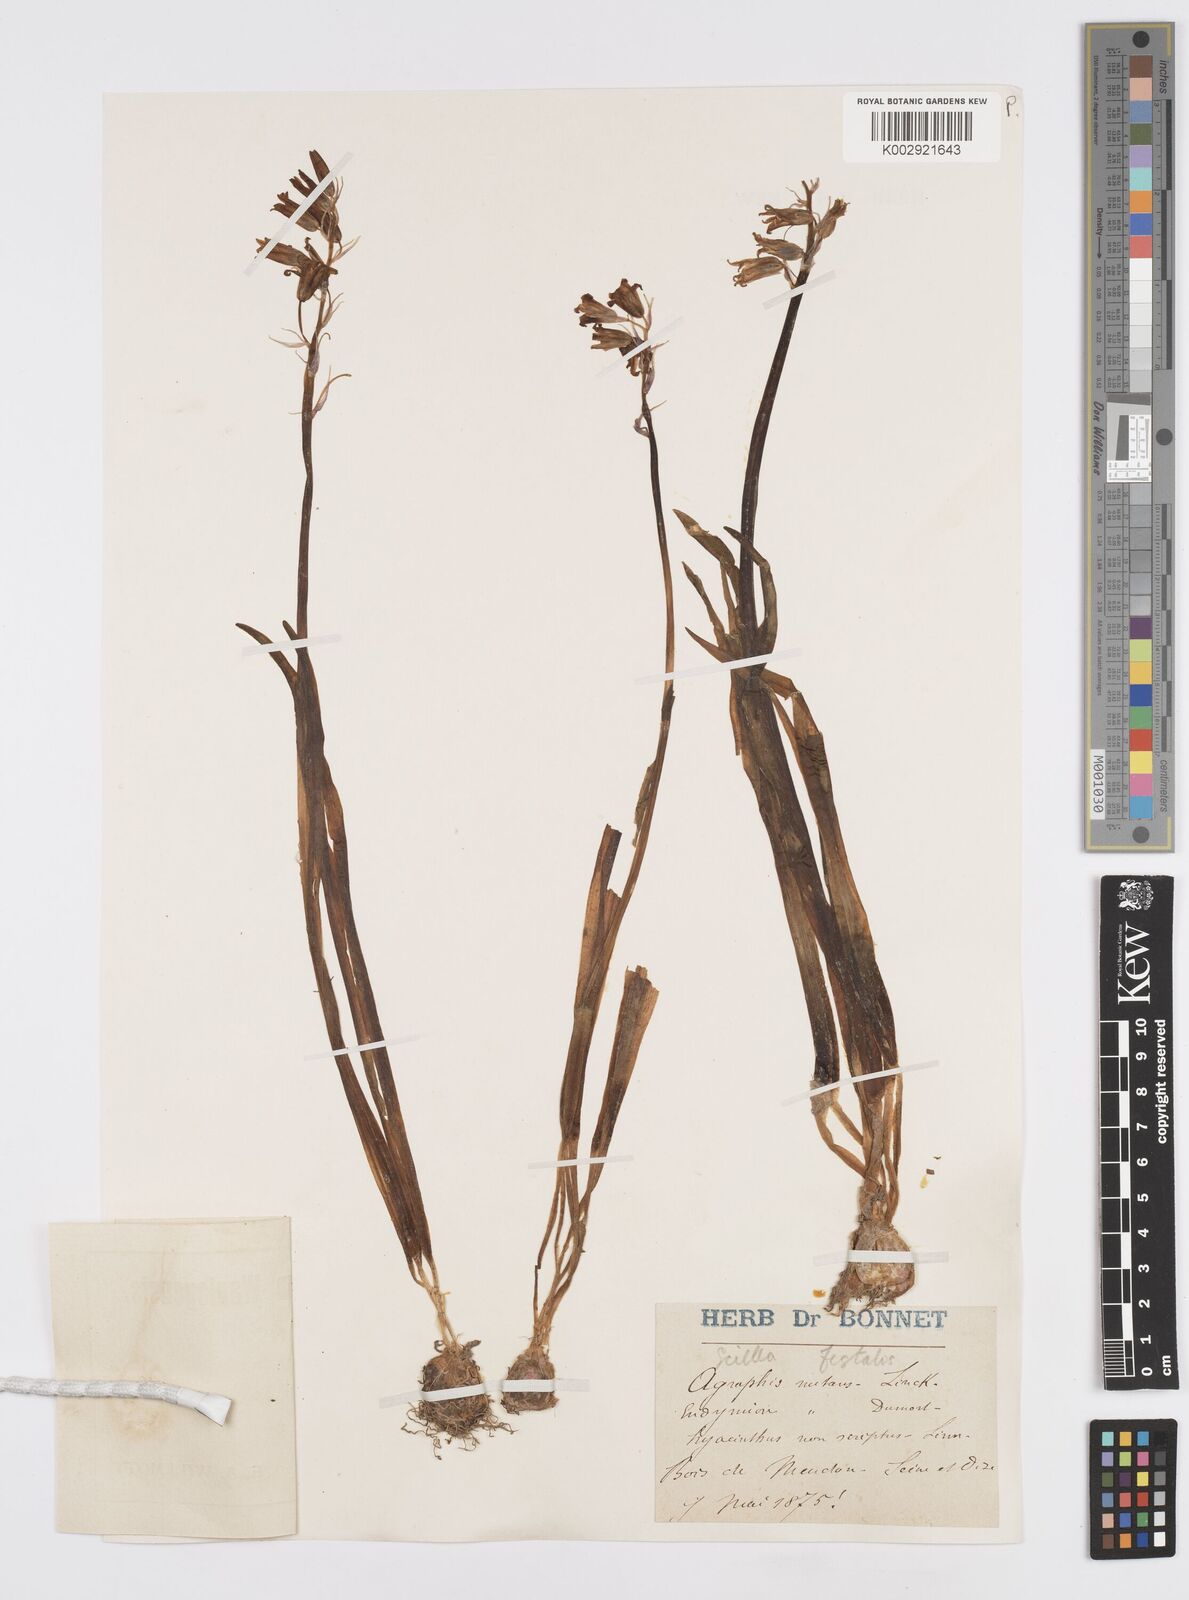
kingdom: Plantae
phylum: Tracheophyta
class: Liliopsida
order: Asparagales
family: Asparagaceae
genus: Hyacinthoides
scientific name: Hyacinthoides non-scripta
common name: Bluebell
